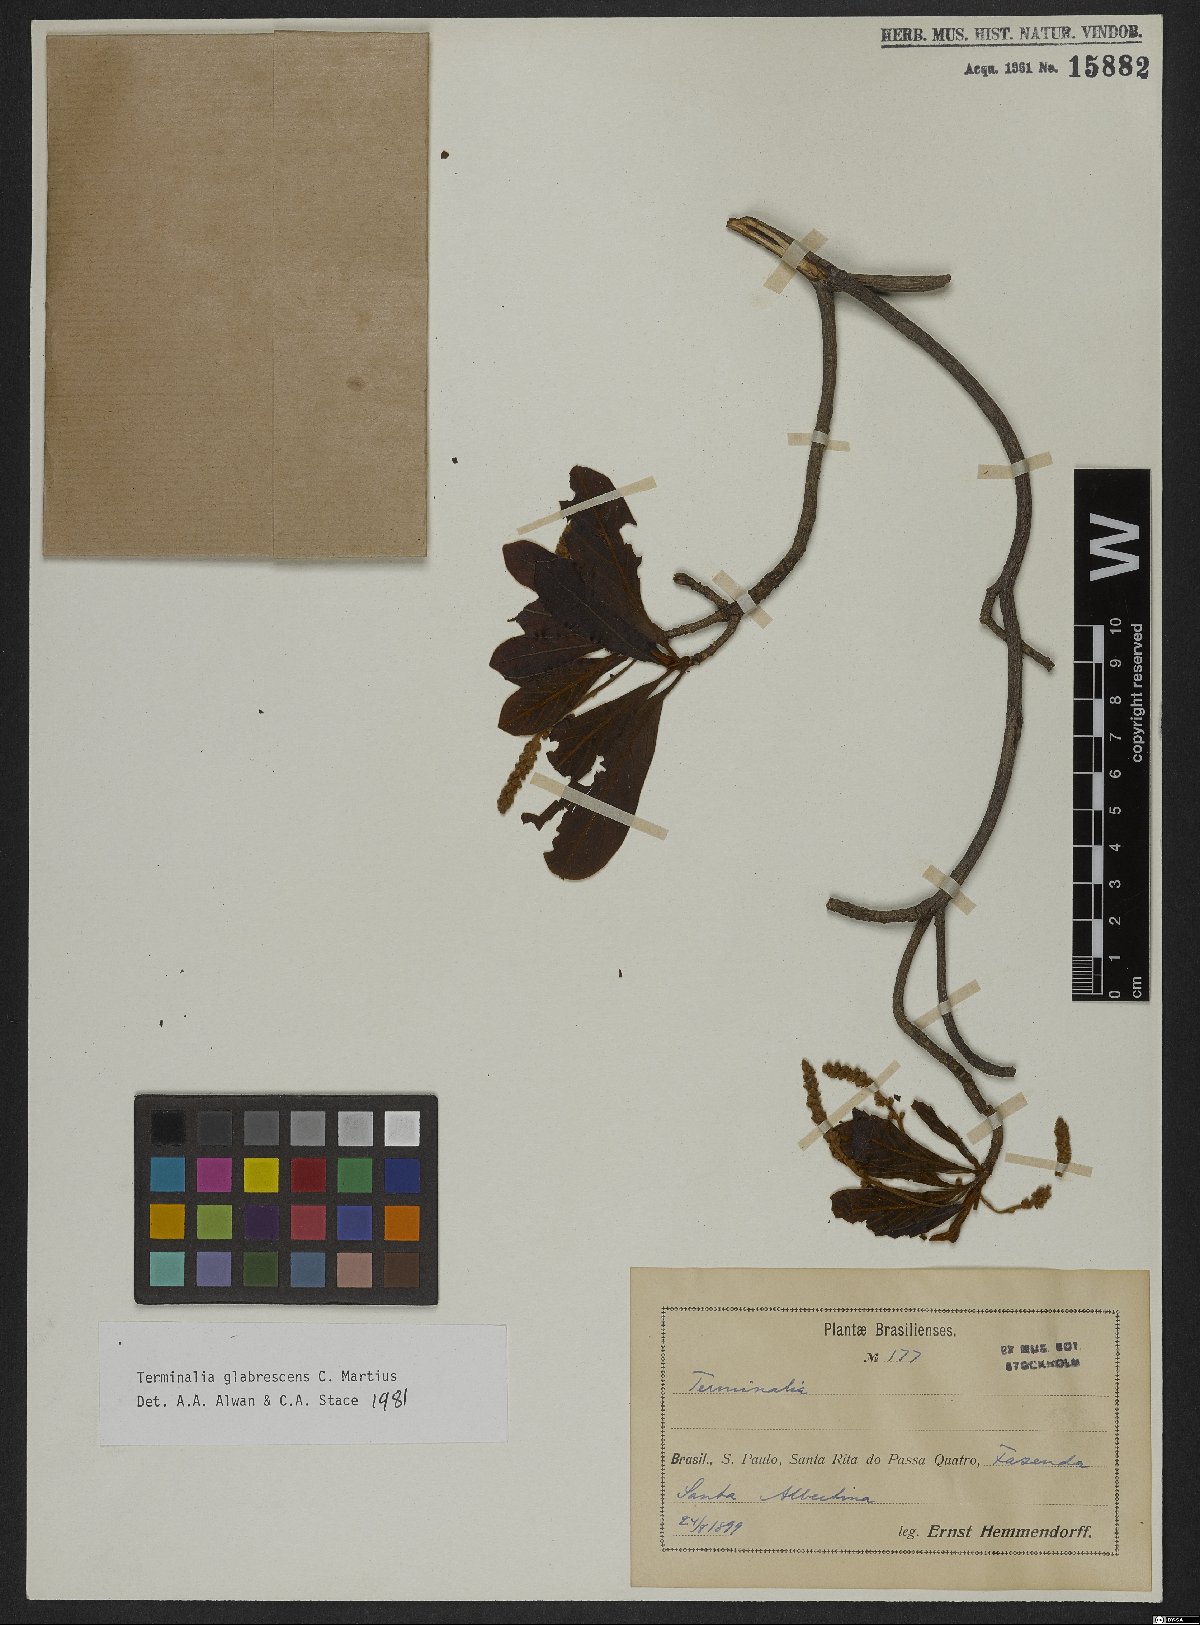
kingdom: Plantae
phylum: Tracheophyta
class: Magnoliopsida
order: Myrtales
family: Combretaceae
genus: Terminalia
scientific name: Terminalia glabrescens
